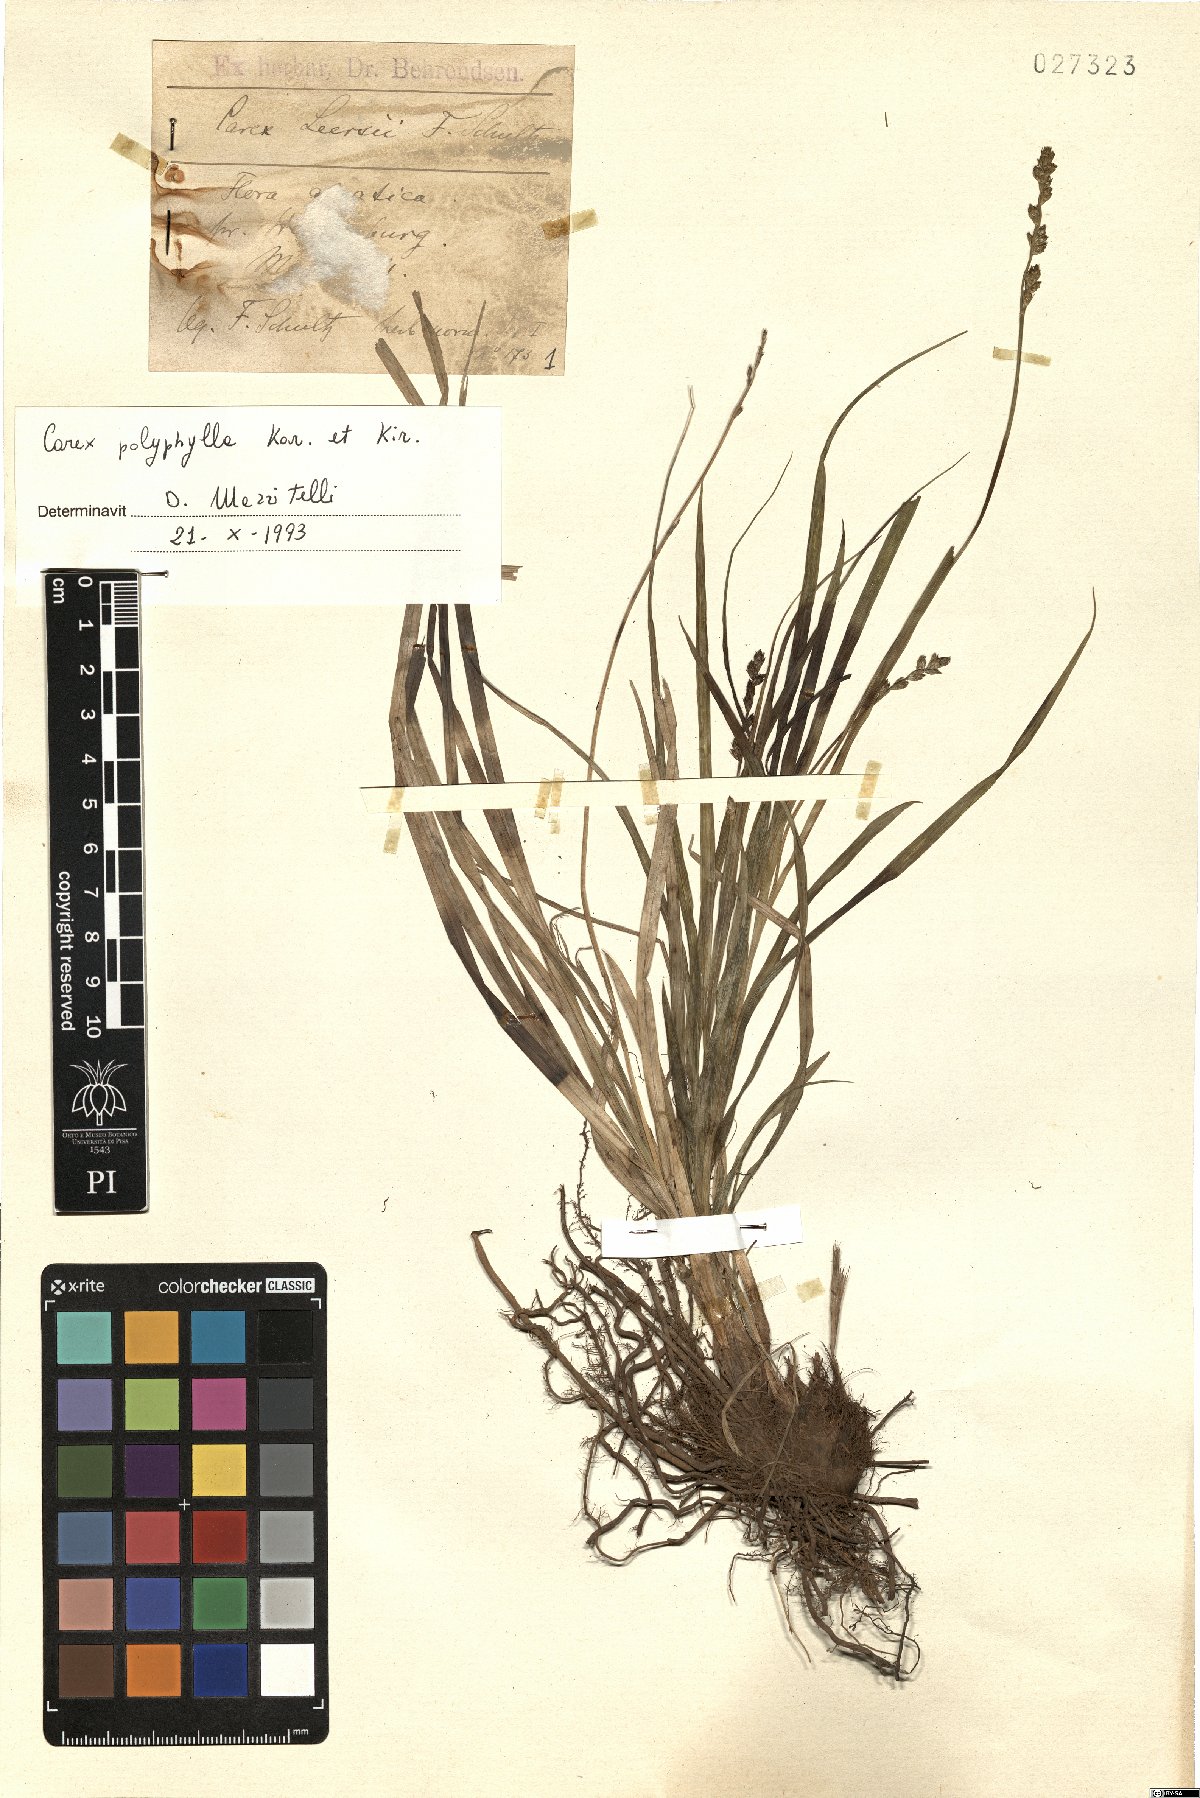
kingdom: Plantae
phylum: Tracheophyta
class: Liliopsida
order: Poales
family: Cyperaceae
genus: Carex
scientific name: Carex polyphylla
